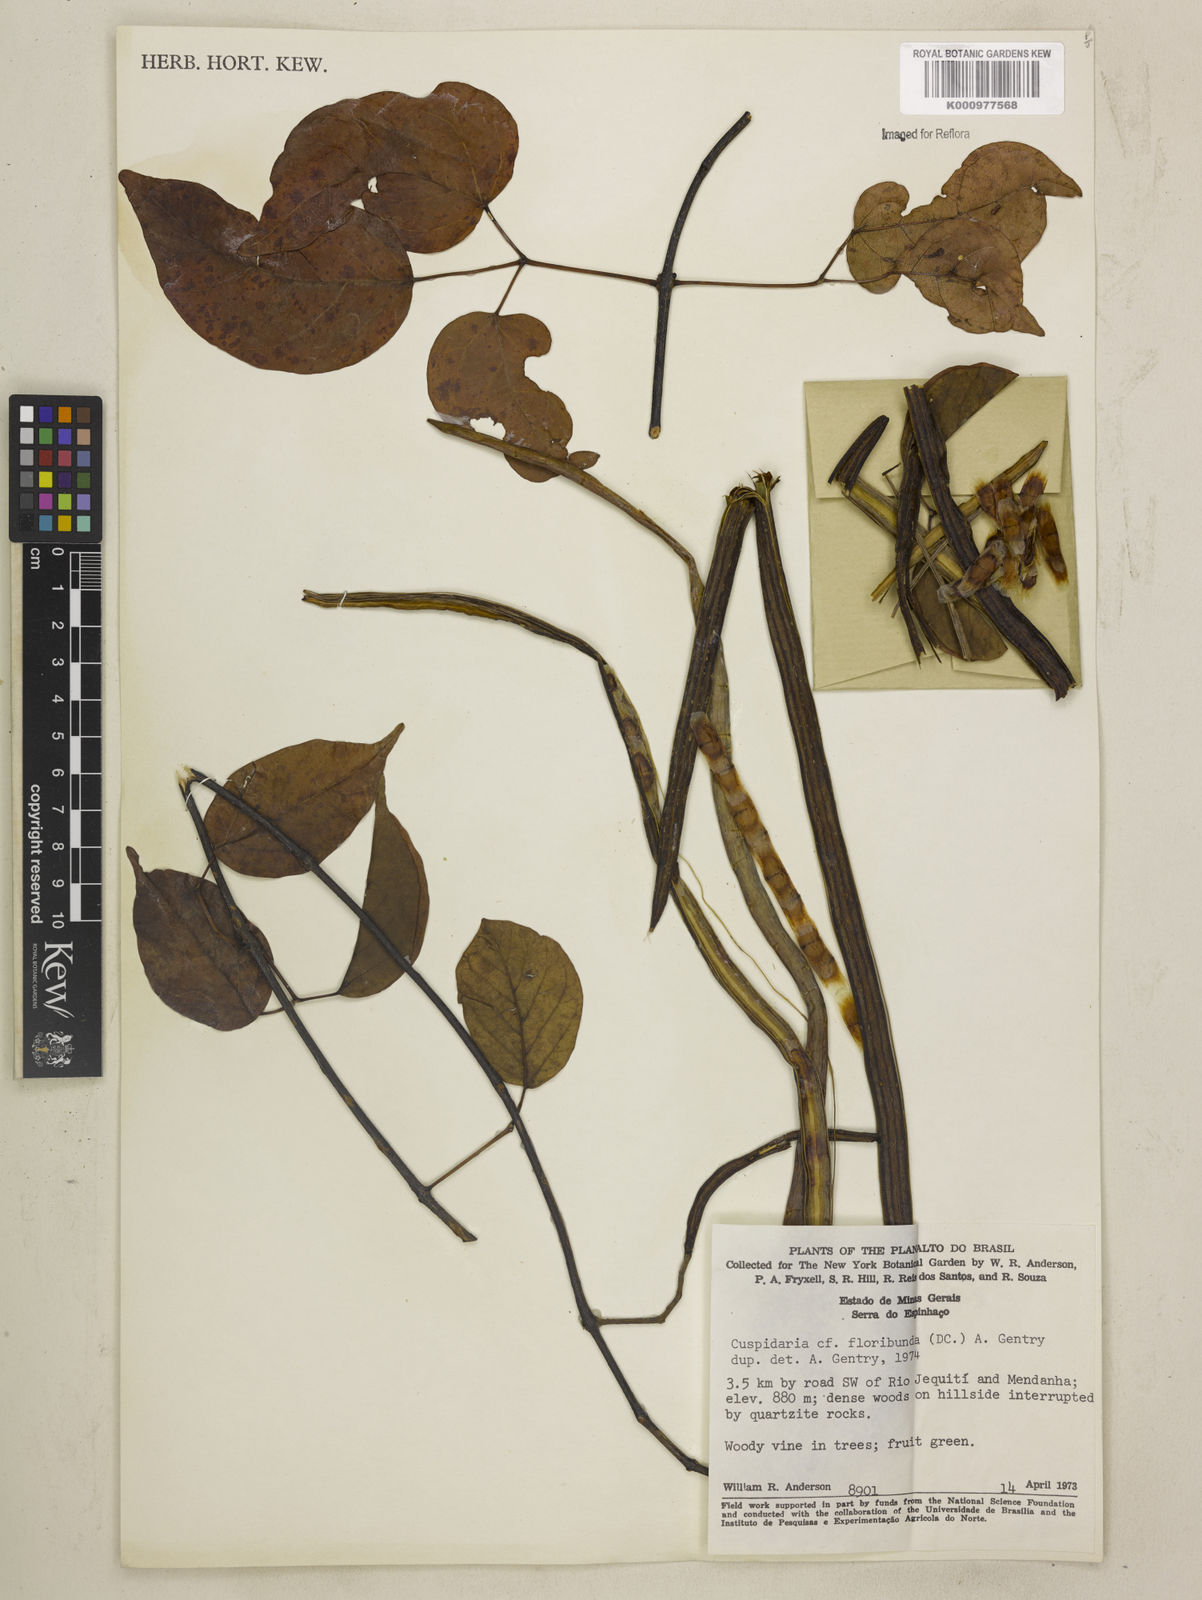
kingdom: Plantae
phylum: Tracheophyta
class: Magnoliopsida
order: Lamiales
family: Bignoniaceae
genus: Cuspidaria
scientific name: Cuspidaria floribunda
